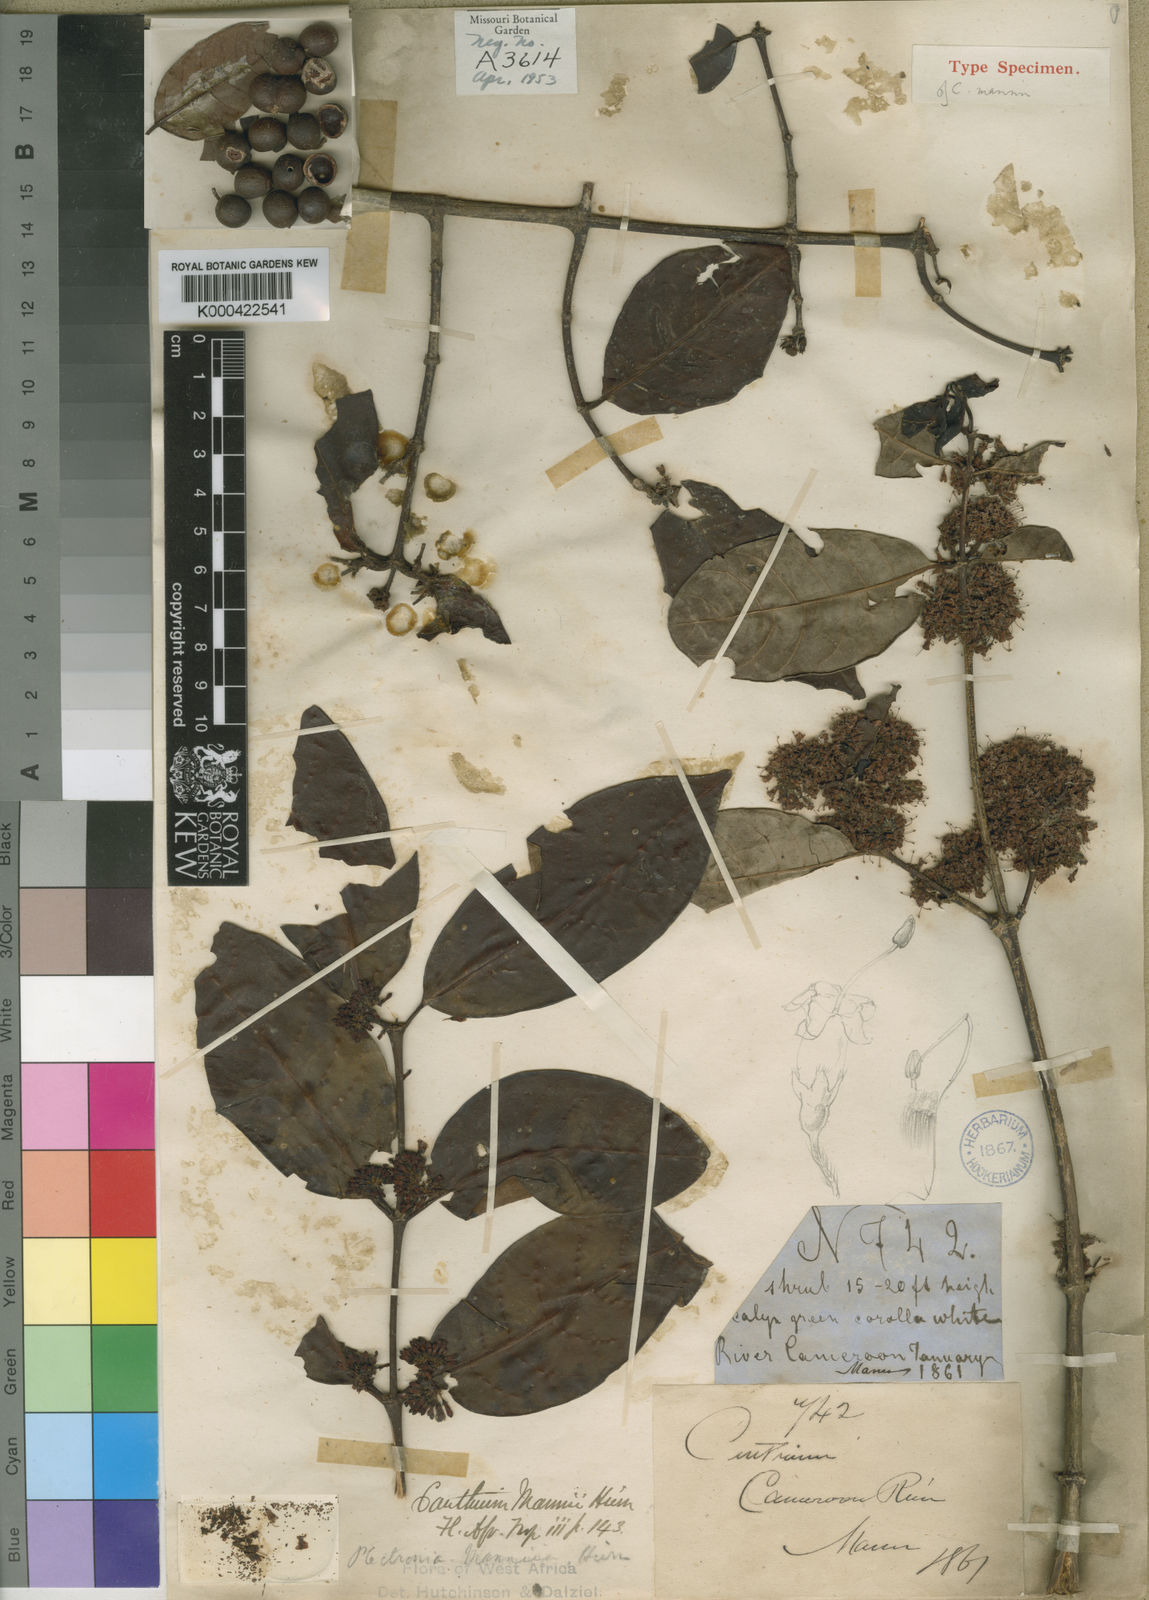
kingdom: Plantae
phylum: Tracheophyta
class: Magnoliopsida
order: Gentianales
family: Rubiaceae
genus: Keetia
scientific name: Keetia mannii
